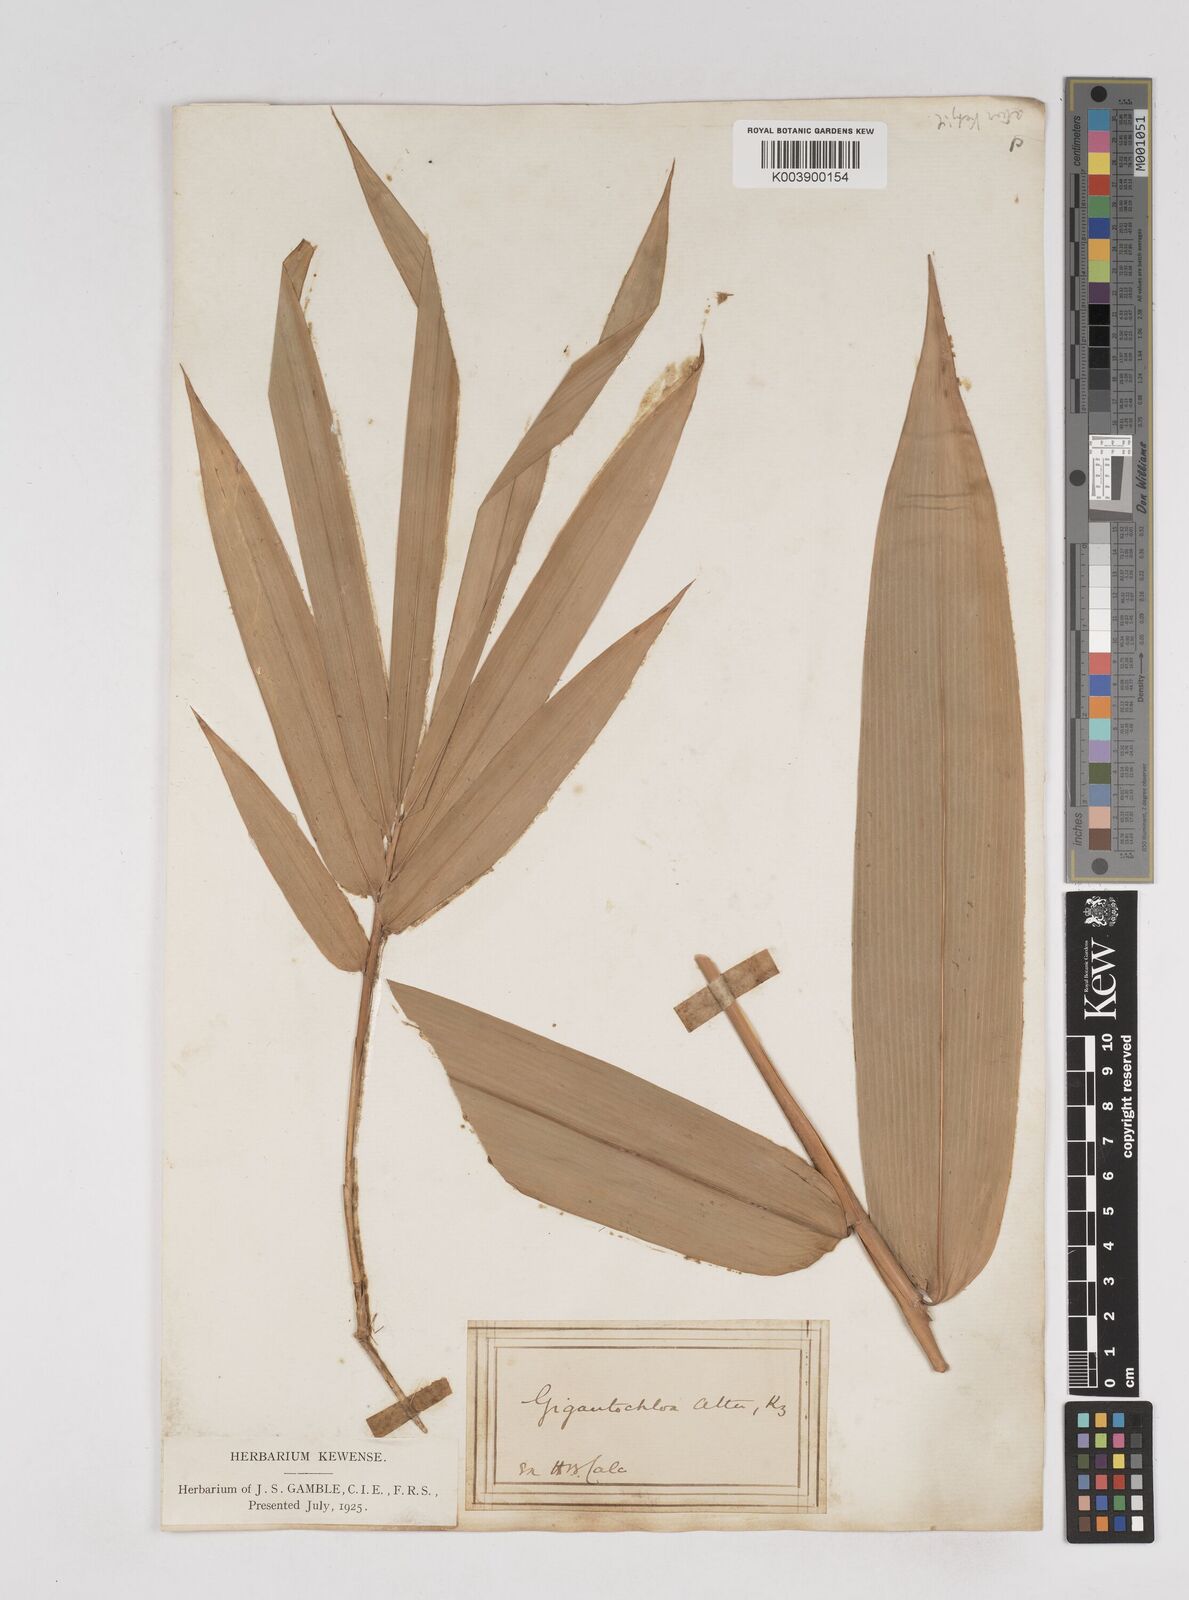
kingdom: Plantae
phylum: Tracheophyta
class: Liliopsida
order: Poales
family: Poaceae
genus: Gigantochloa
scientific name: Gigantochloa atter
